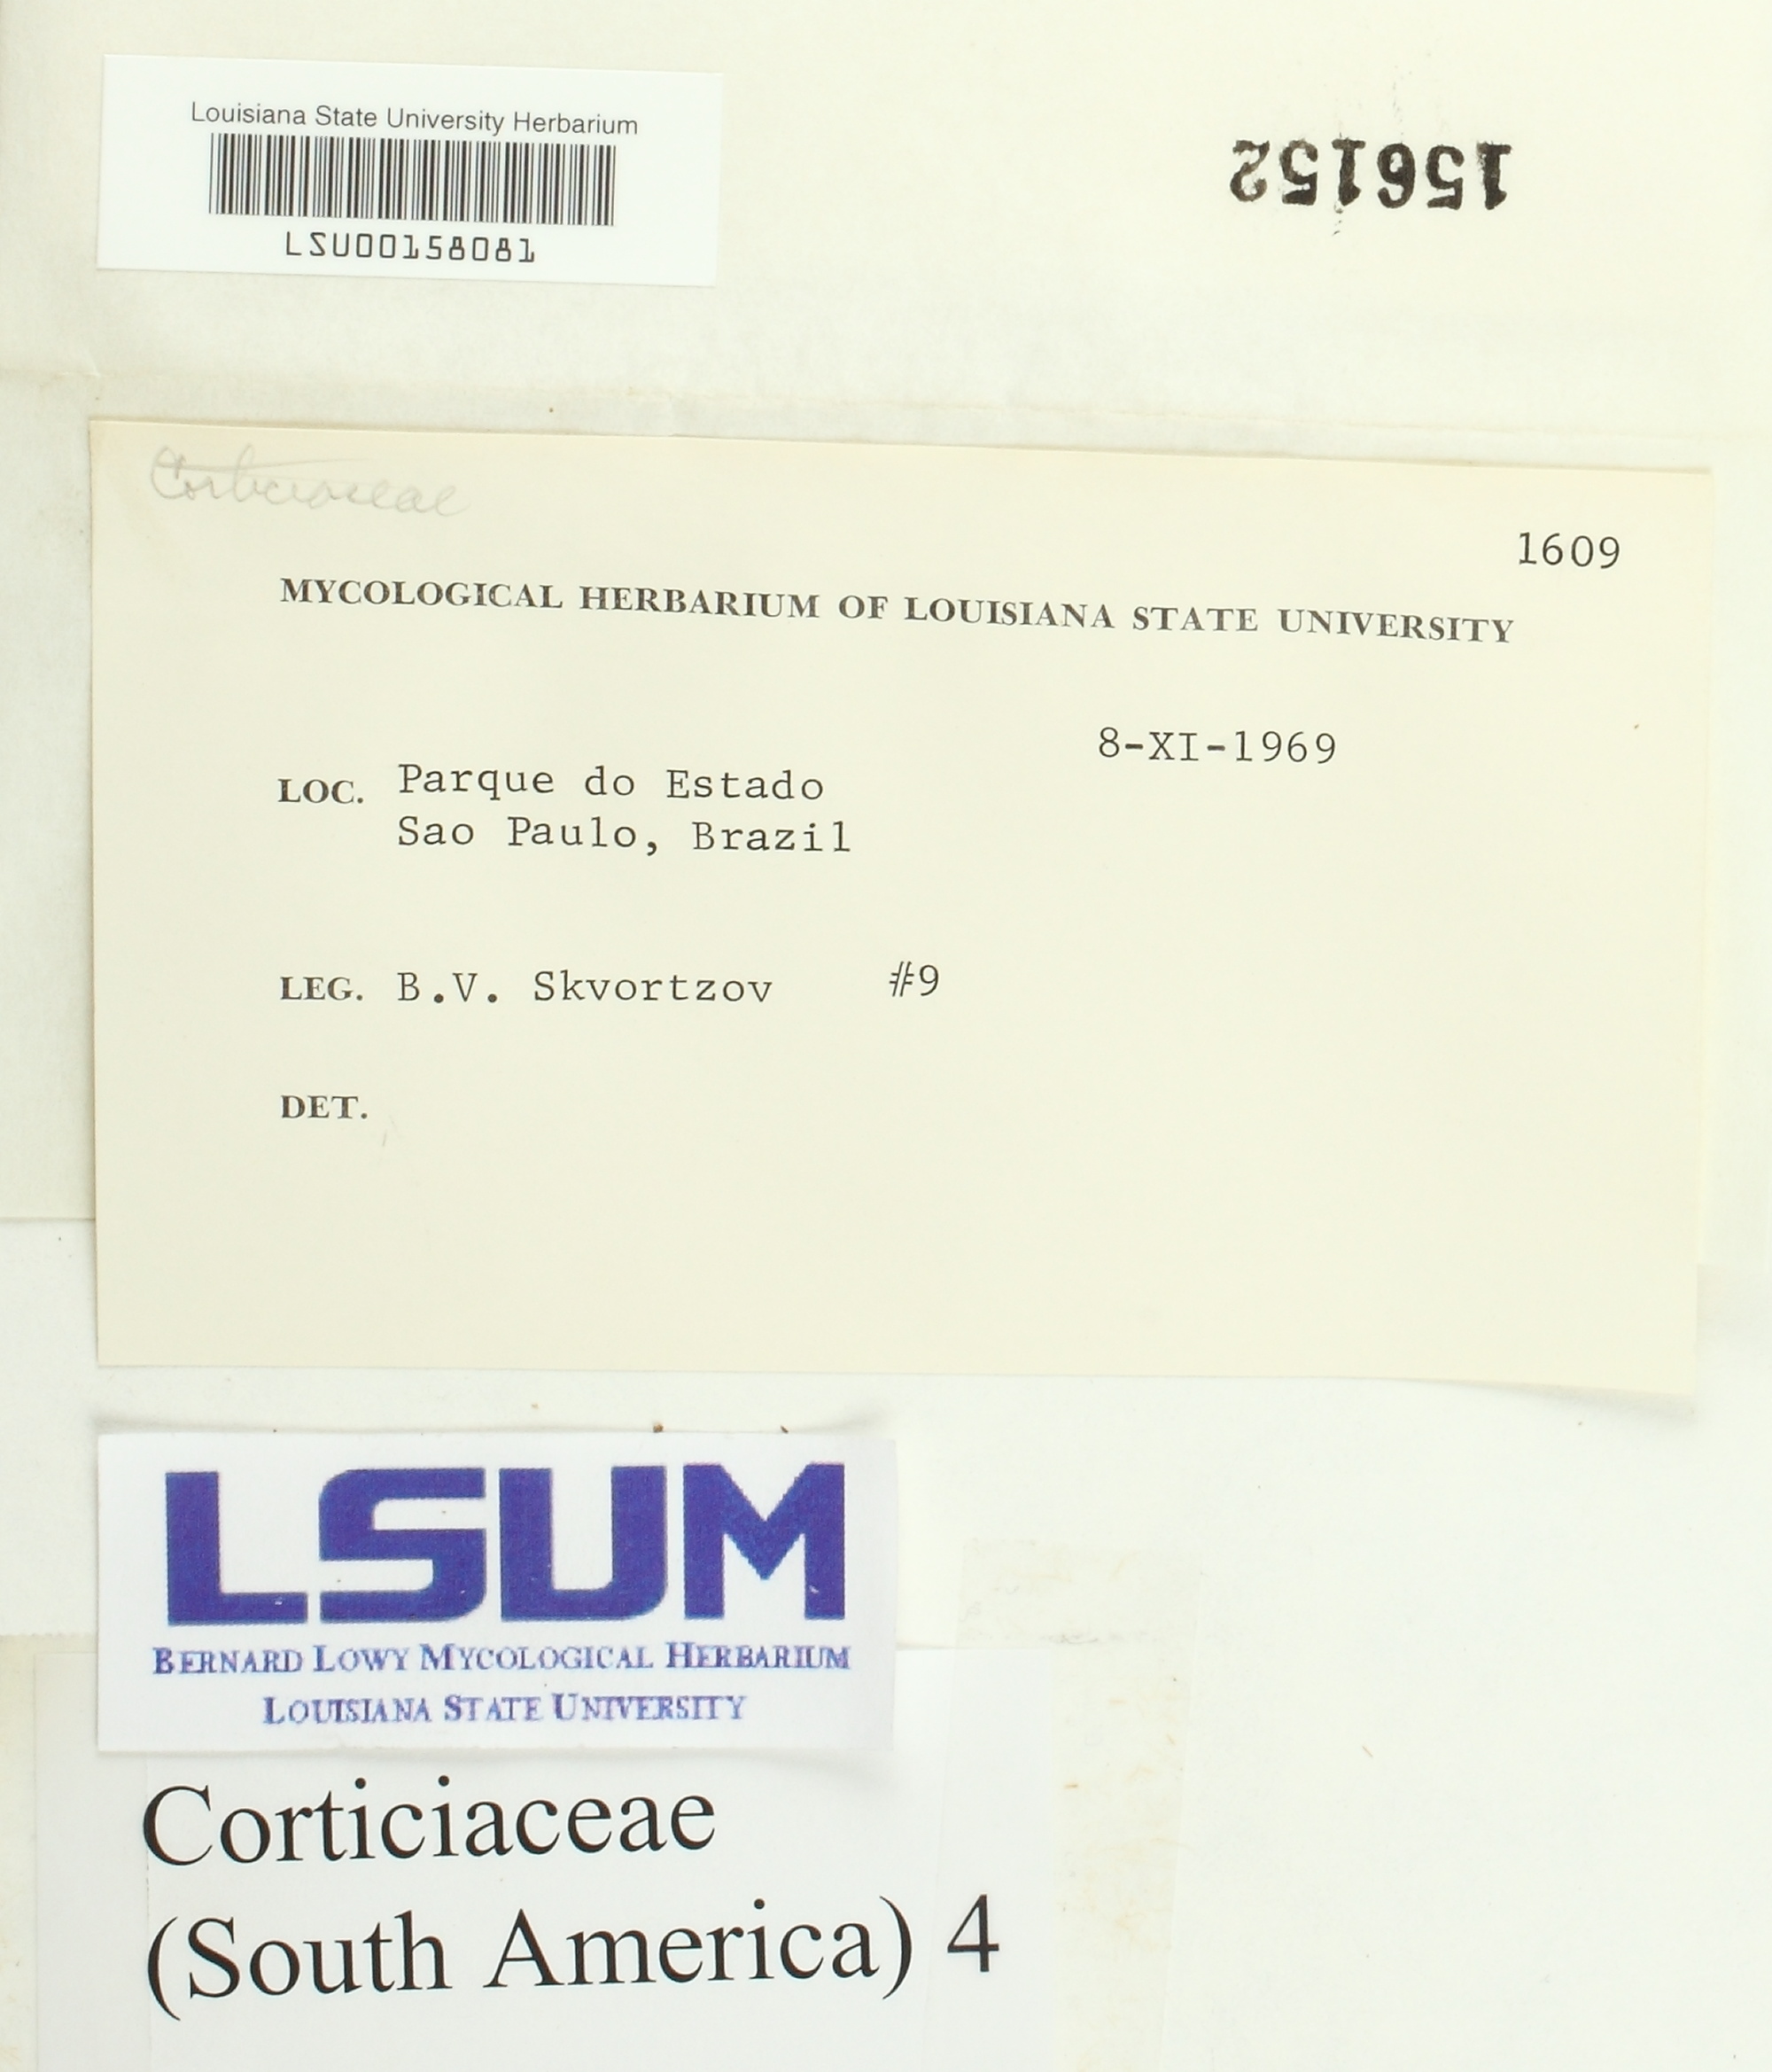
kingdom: Fungi
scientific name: Fungi
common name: Fungi
